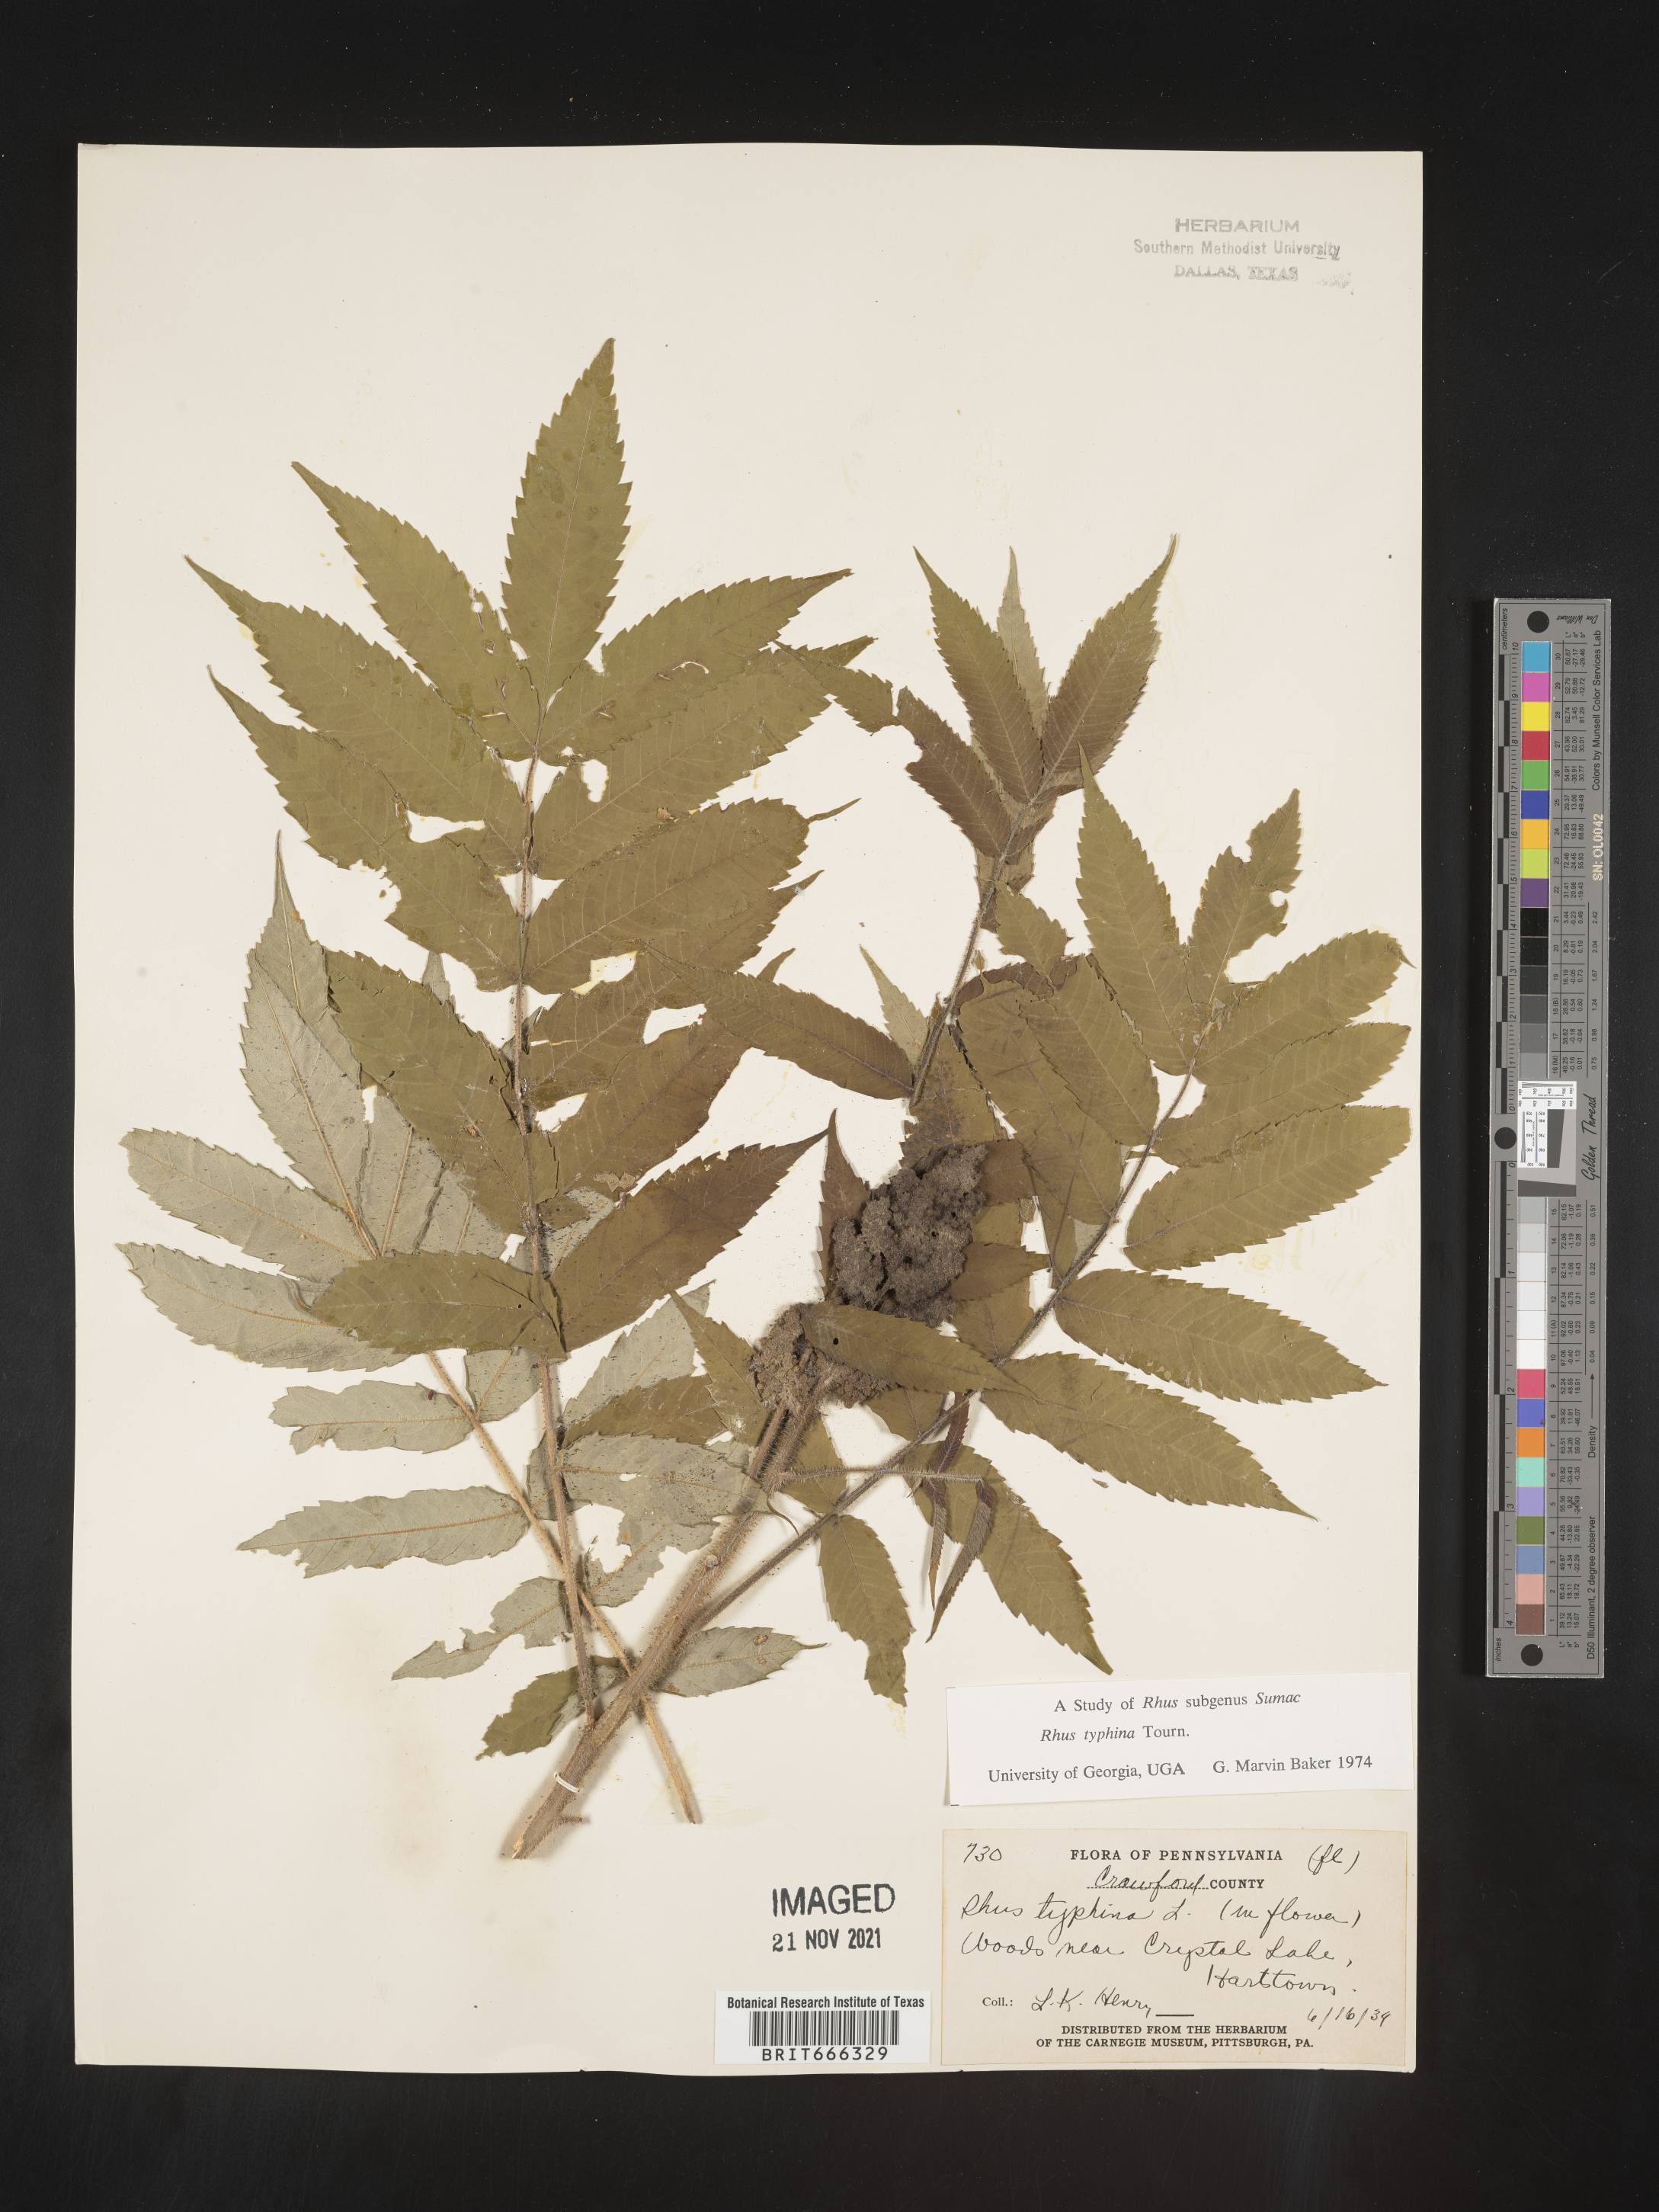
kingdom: Plantae
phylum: Tracheophyta
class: Magnoliopsida
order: Sapindales
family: Anacardiaceae
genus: Rhus
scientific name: Rhus typhina
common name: Staghorn sumac
